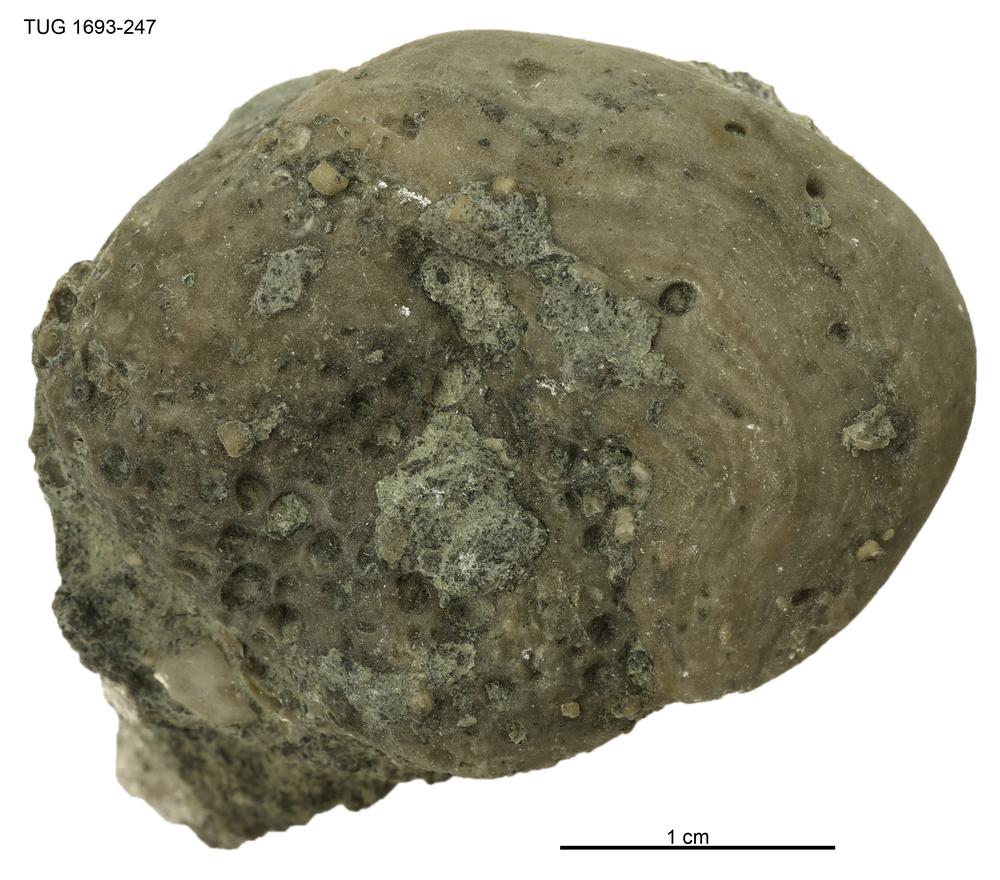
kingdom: Animalia
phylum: Porifera
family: Stromatoporidae
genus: Stromatopora
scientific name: Stromatopora
